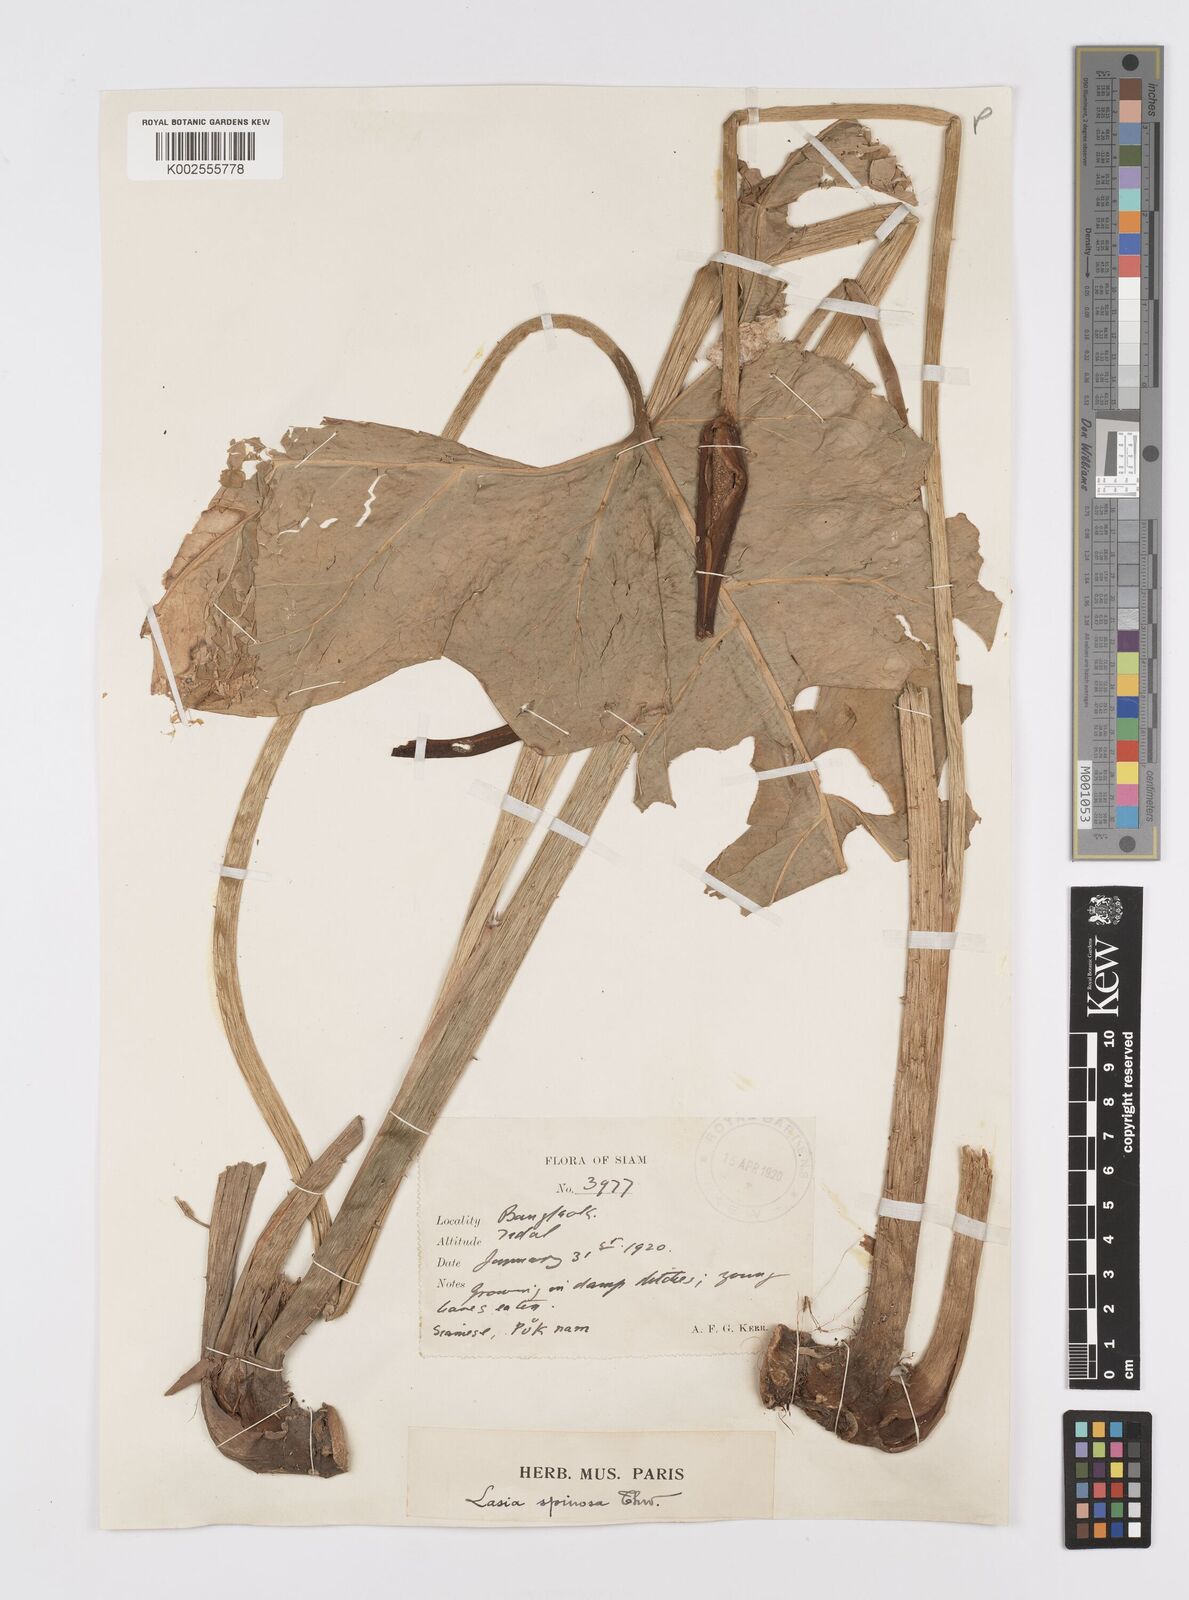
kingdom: Plantae
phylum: Tracheophyta
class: Liliopsida
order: Alismatales
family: Araceae
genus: Lasia
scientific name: Lasia spinosa
